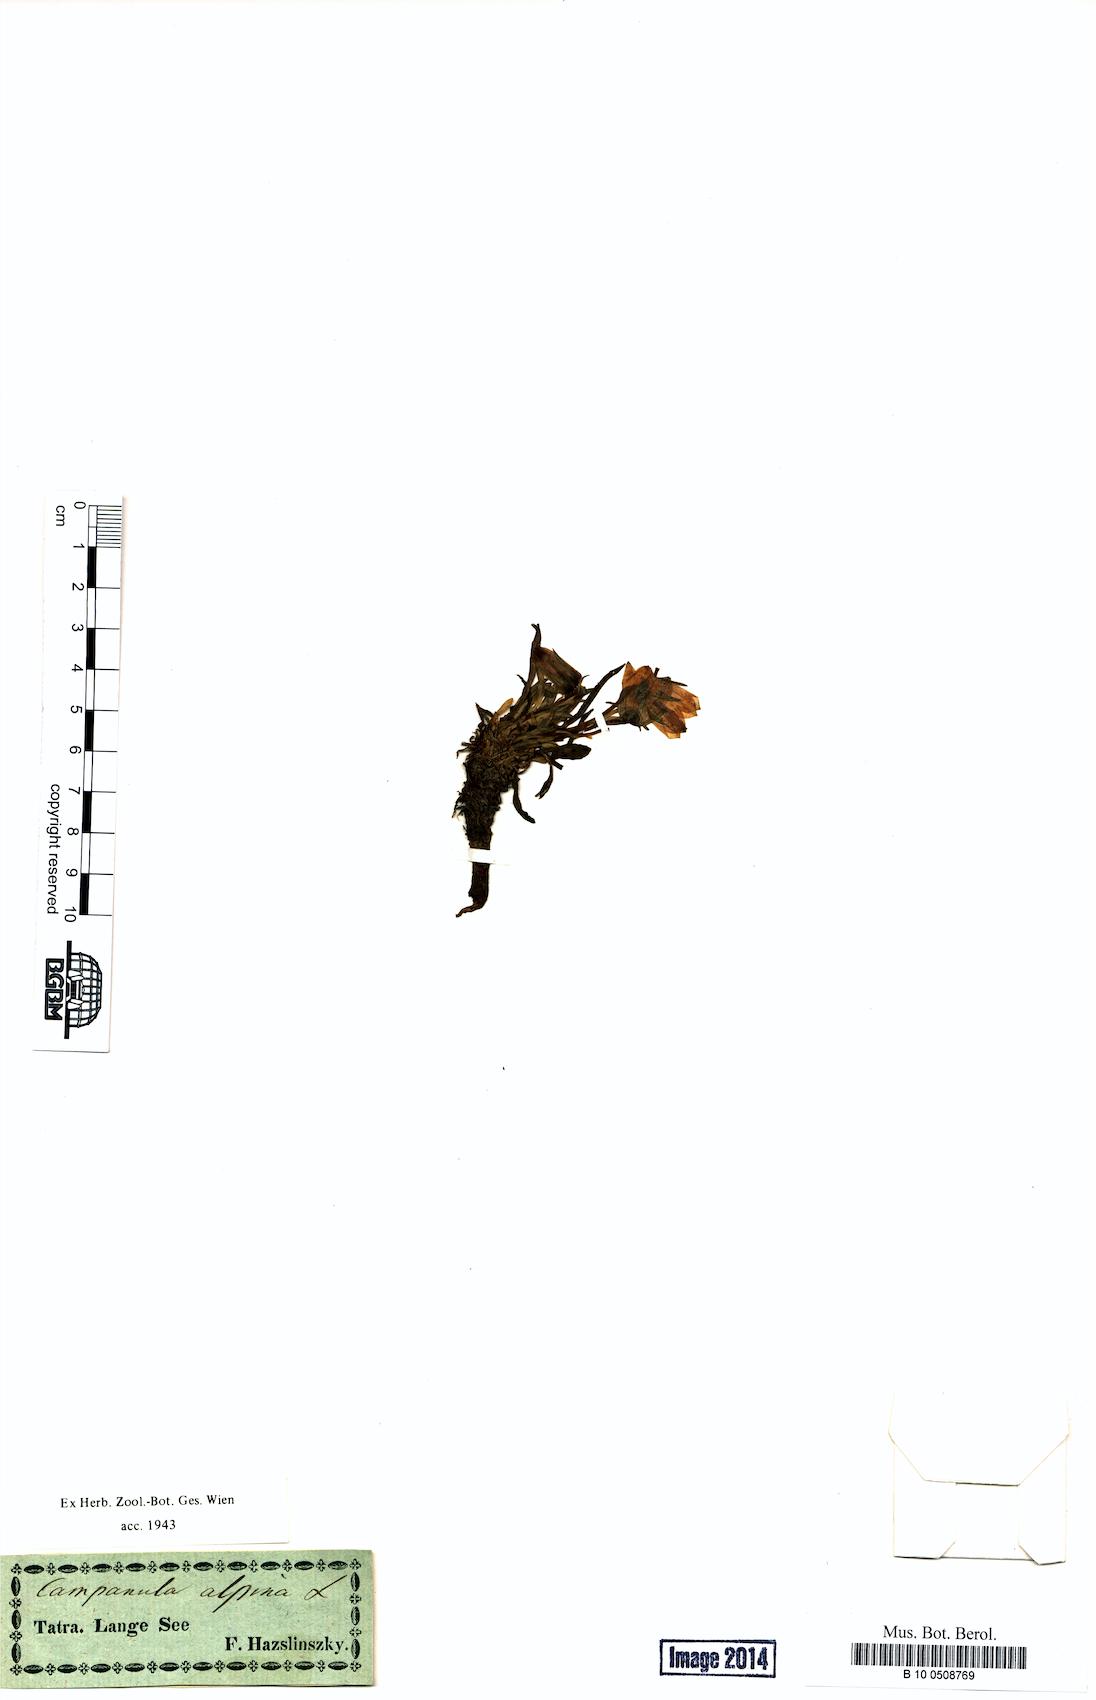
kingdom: Plantae
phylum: Tracheophyta
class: Magnoliopsida
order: Asterales
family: Campanulaceae
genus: Campanula
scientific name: Campanula alpina
